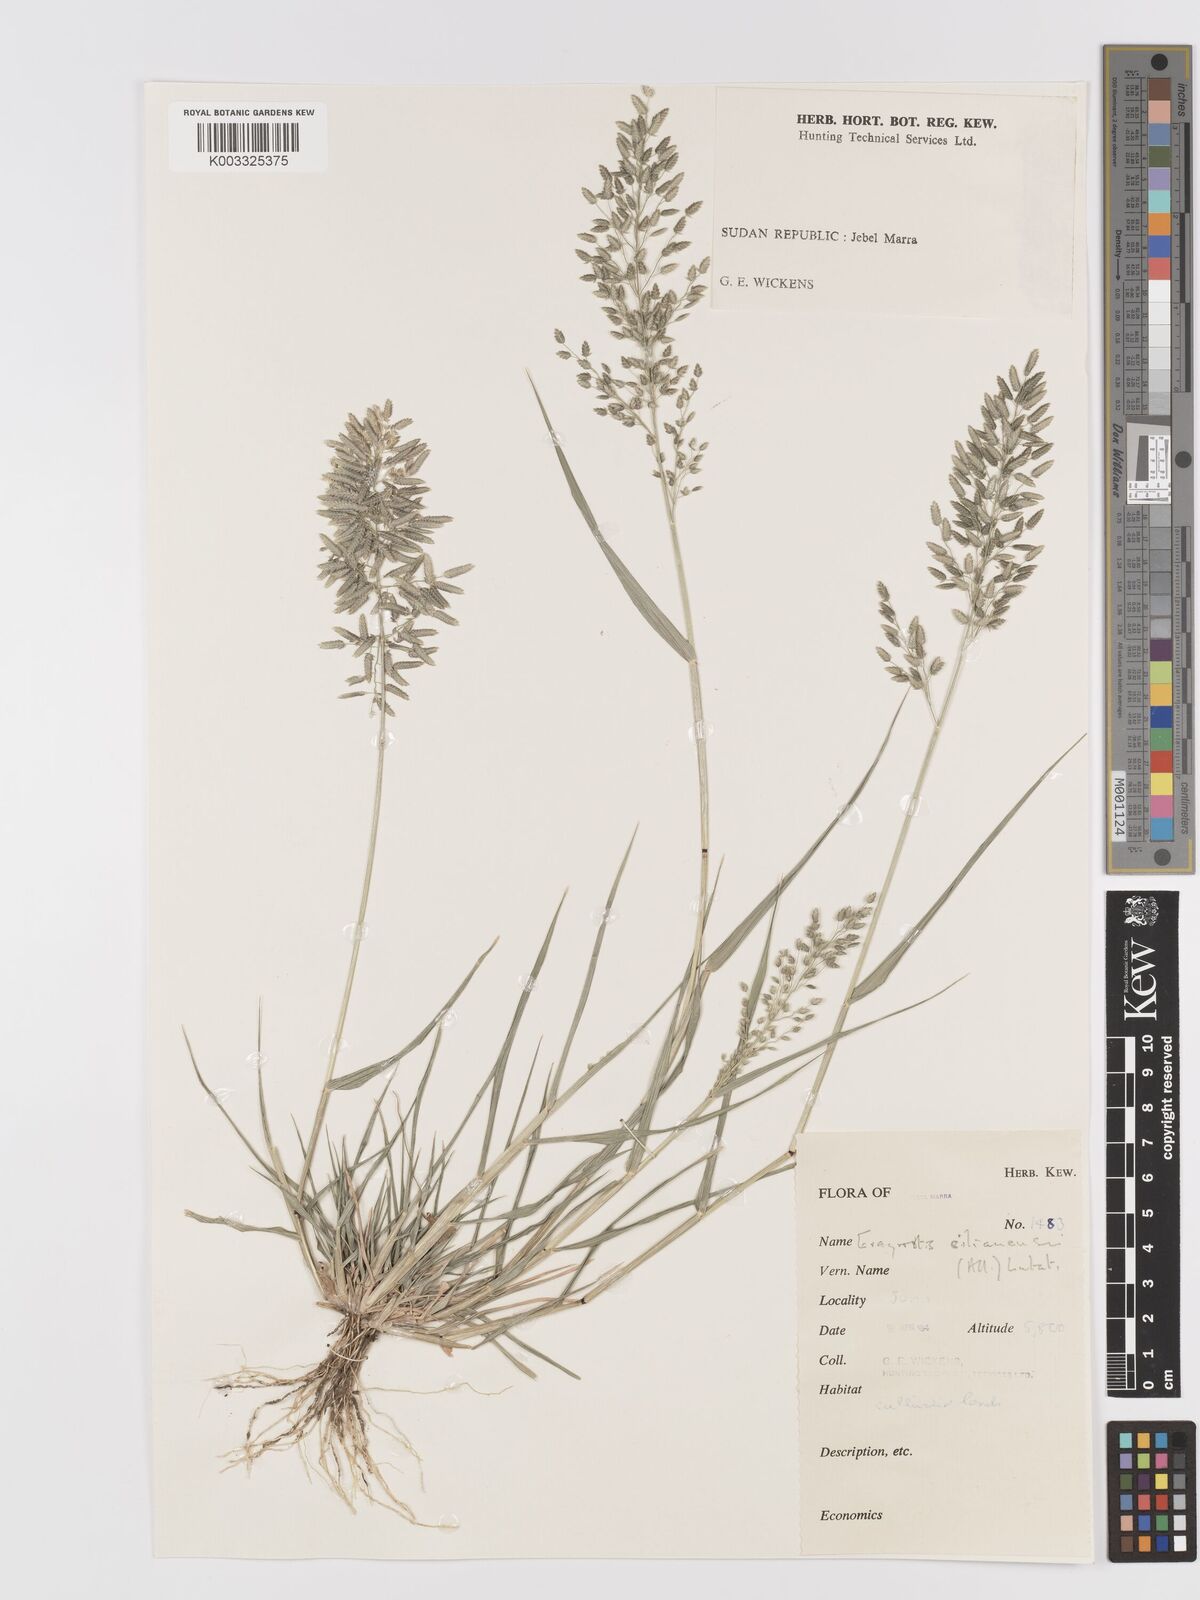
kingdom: Plantae
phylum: Tracheophyta
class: Liliopsida
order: Poales
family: Poaceae
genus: Eragrostis
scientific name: Eragrostis cilianensis
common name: Stinkgrass
